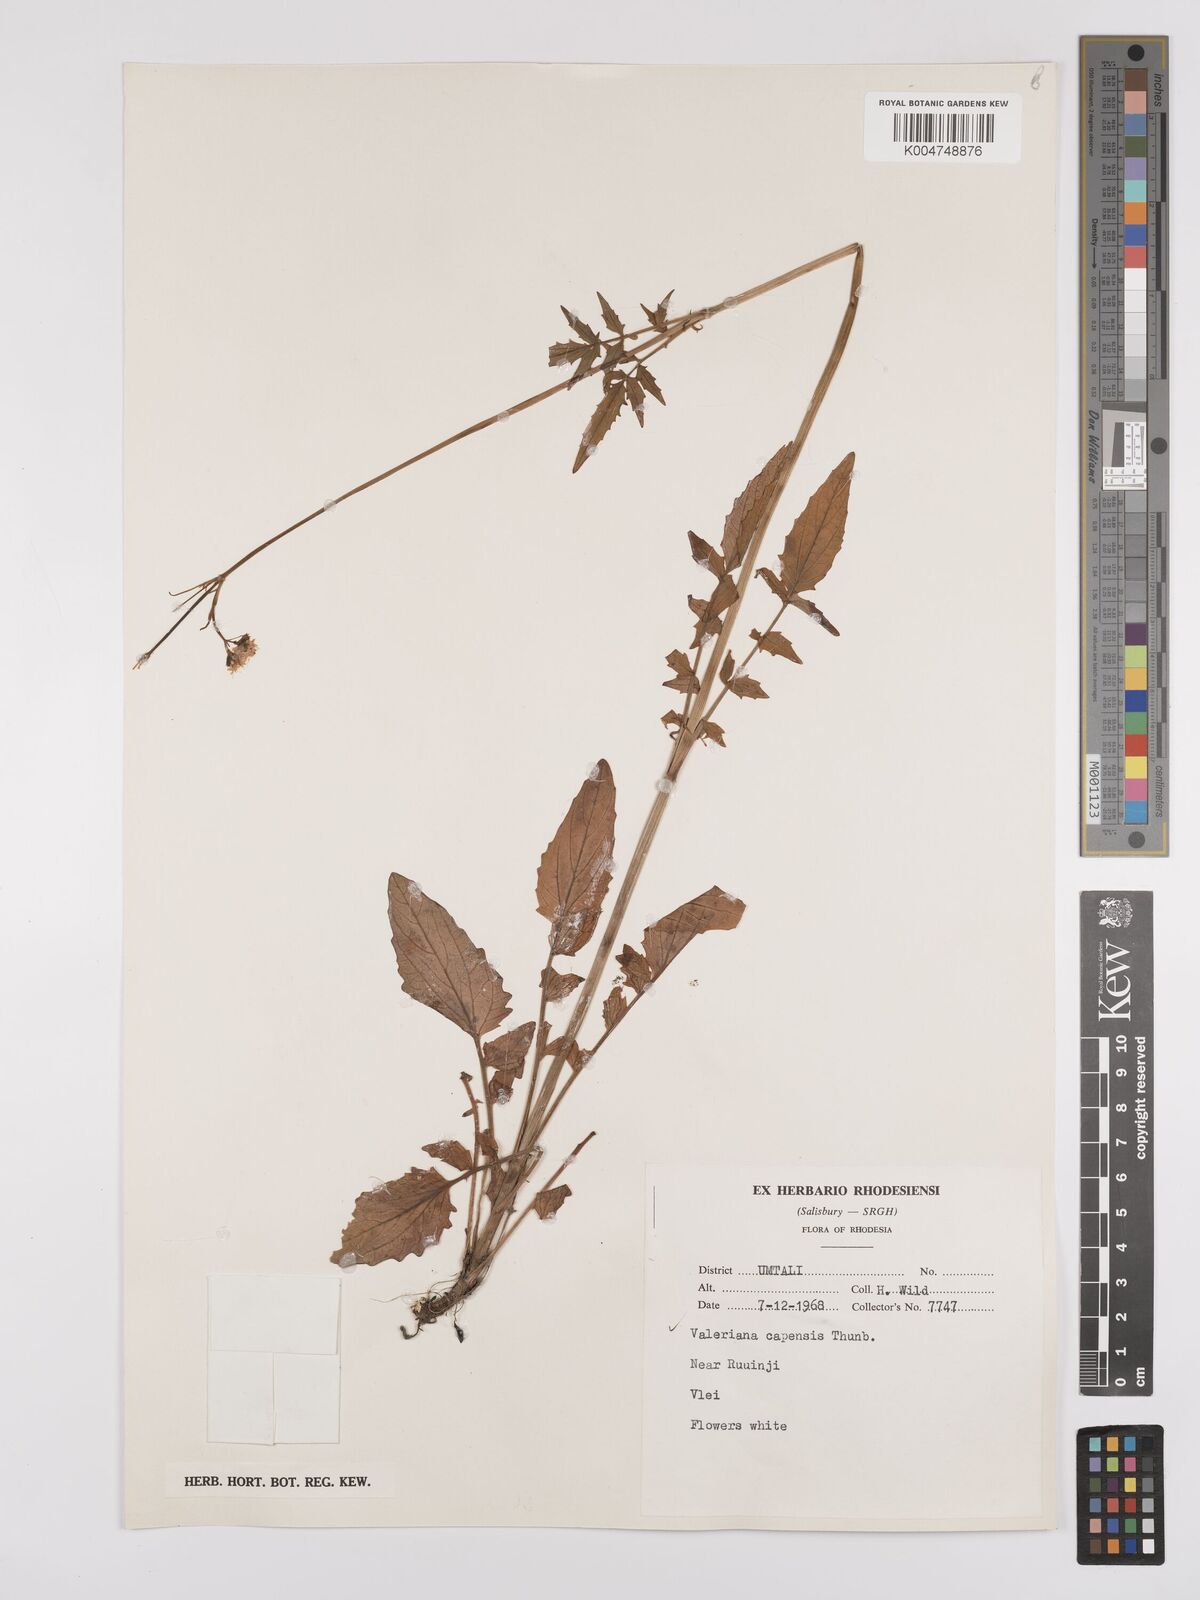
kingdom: Plantae
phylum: Tracheophyta
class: Magnoliopsida
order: Dipsacales
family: Caprifoliaceae
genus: Valeriana
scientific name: Valeriana capensis
